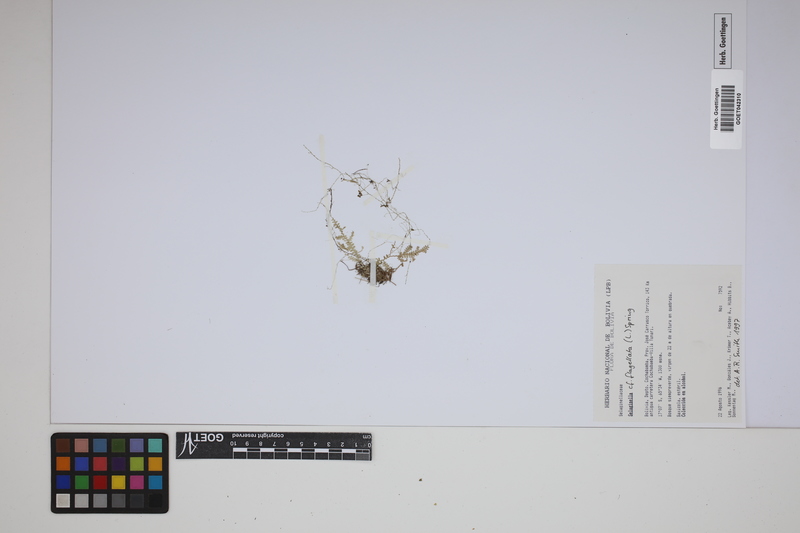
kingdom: Plantae
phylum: Tracheophyta
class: Lycopodiopsida
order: Selaginellales
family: Selaginellaceae
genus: Selaginella
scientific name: Selaginella flagellata
